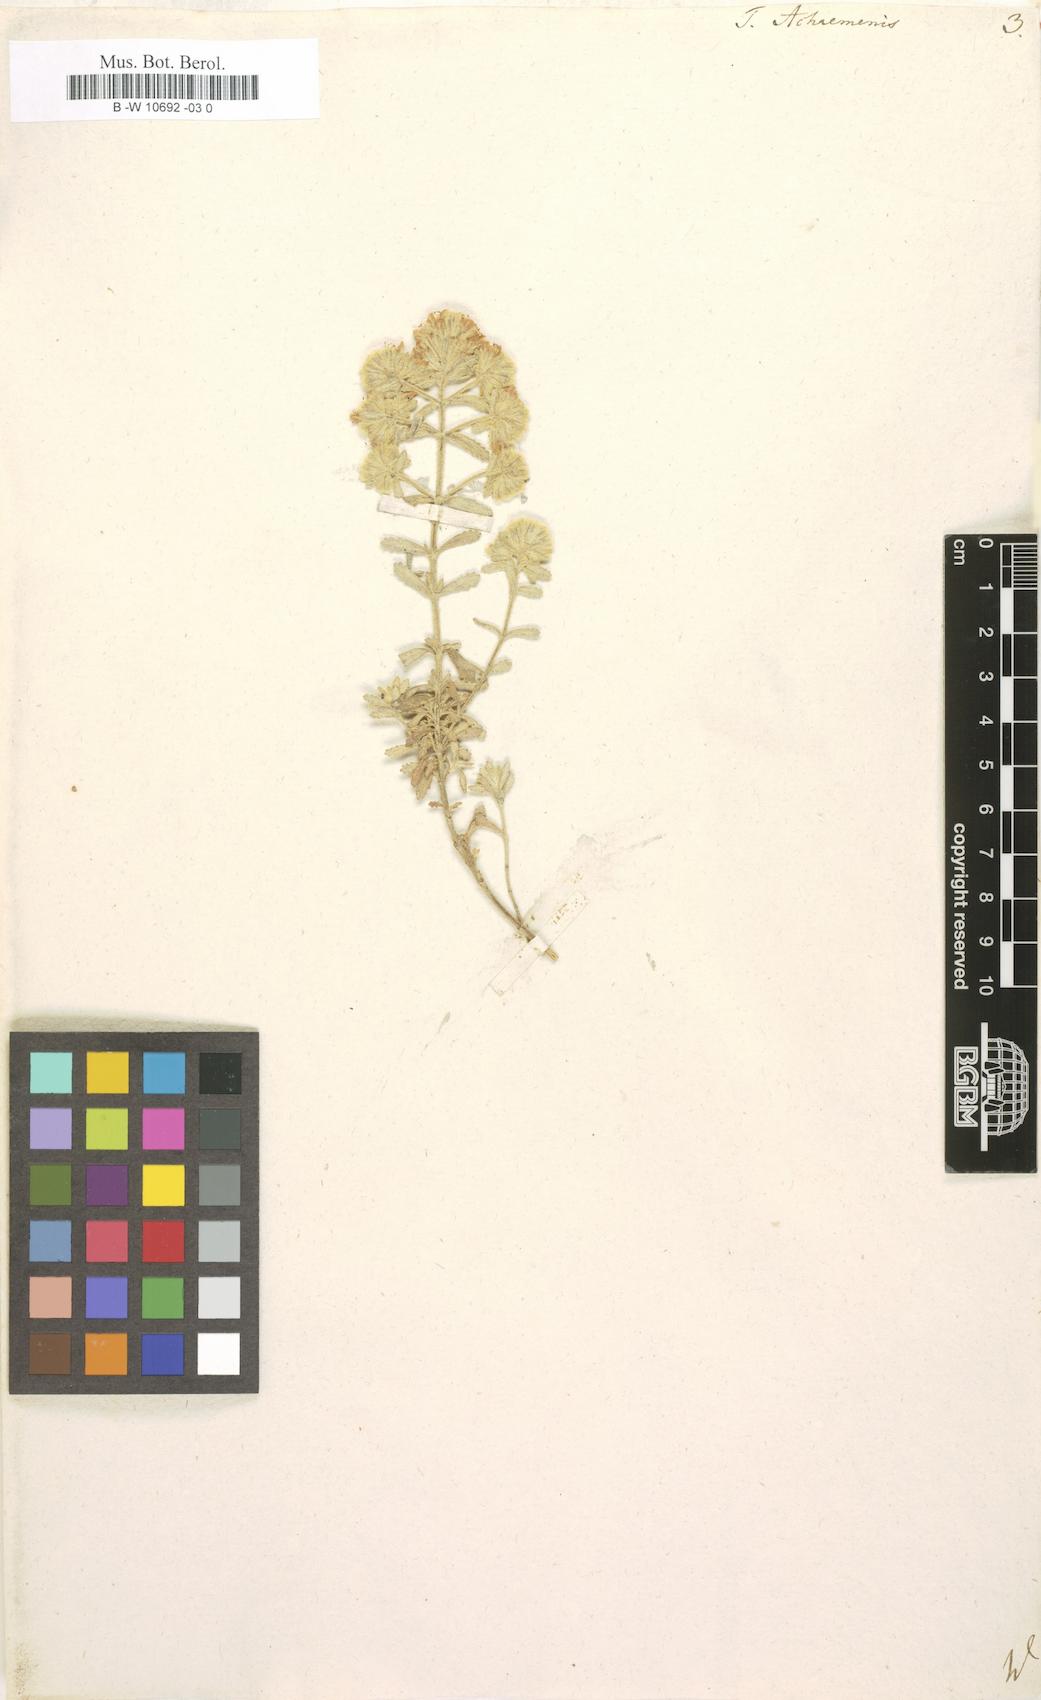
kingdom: Plantae
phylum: Tracheophyta
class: Magnoliopsida
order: Lamiales
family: Lamiaceae
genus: Teucrium
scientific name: Teucrium capitatum
